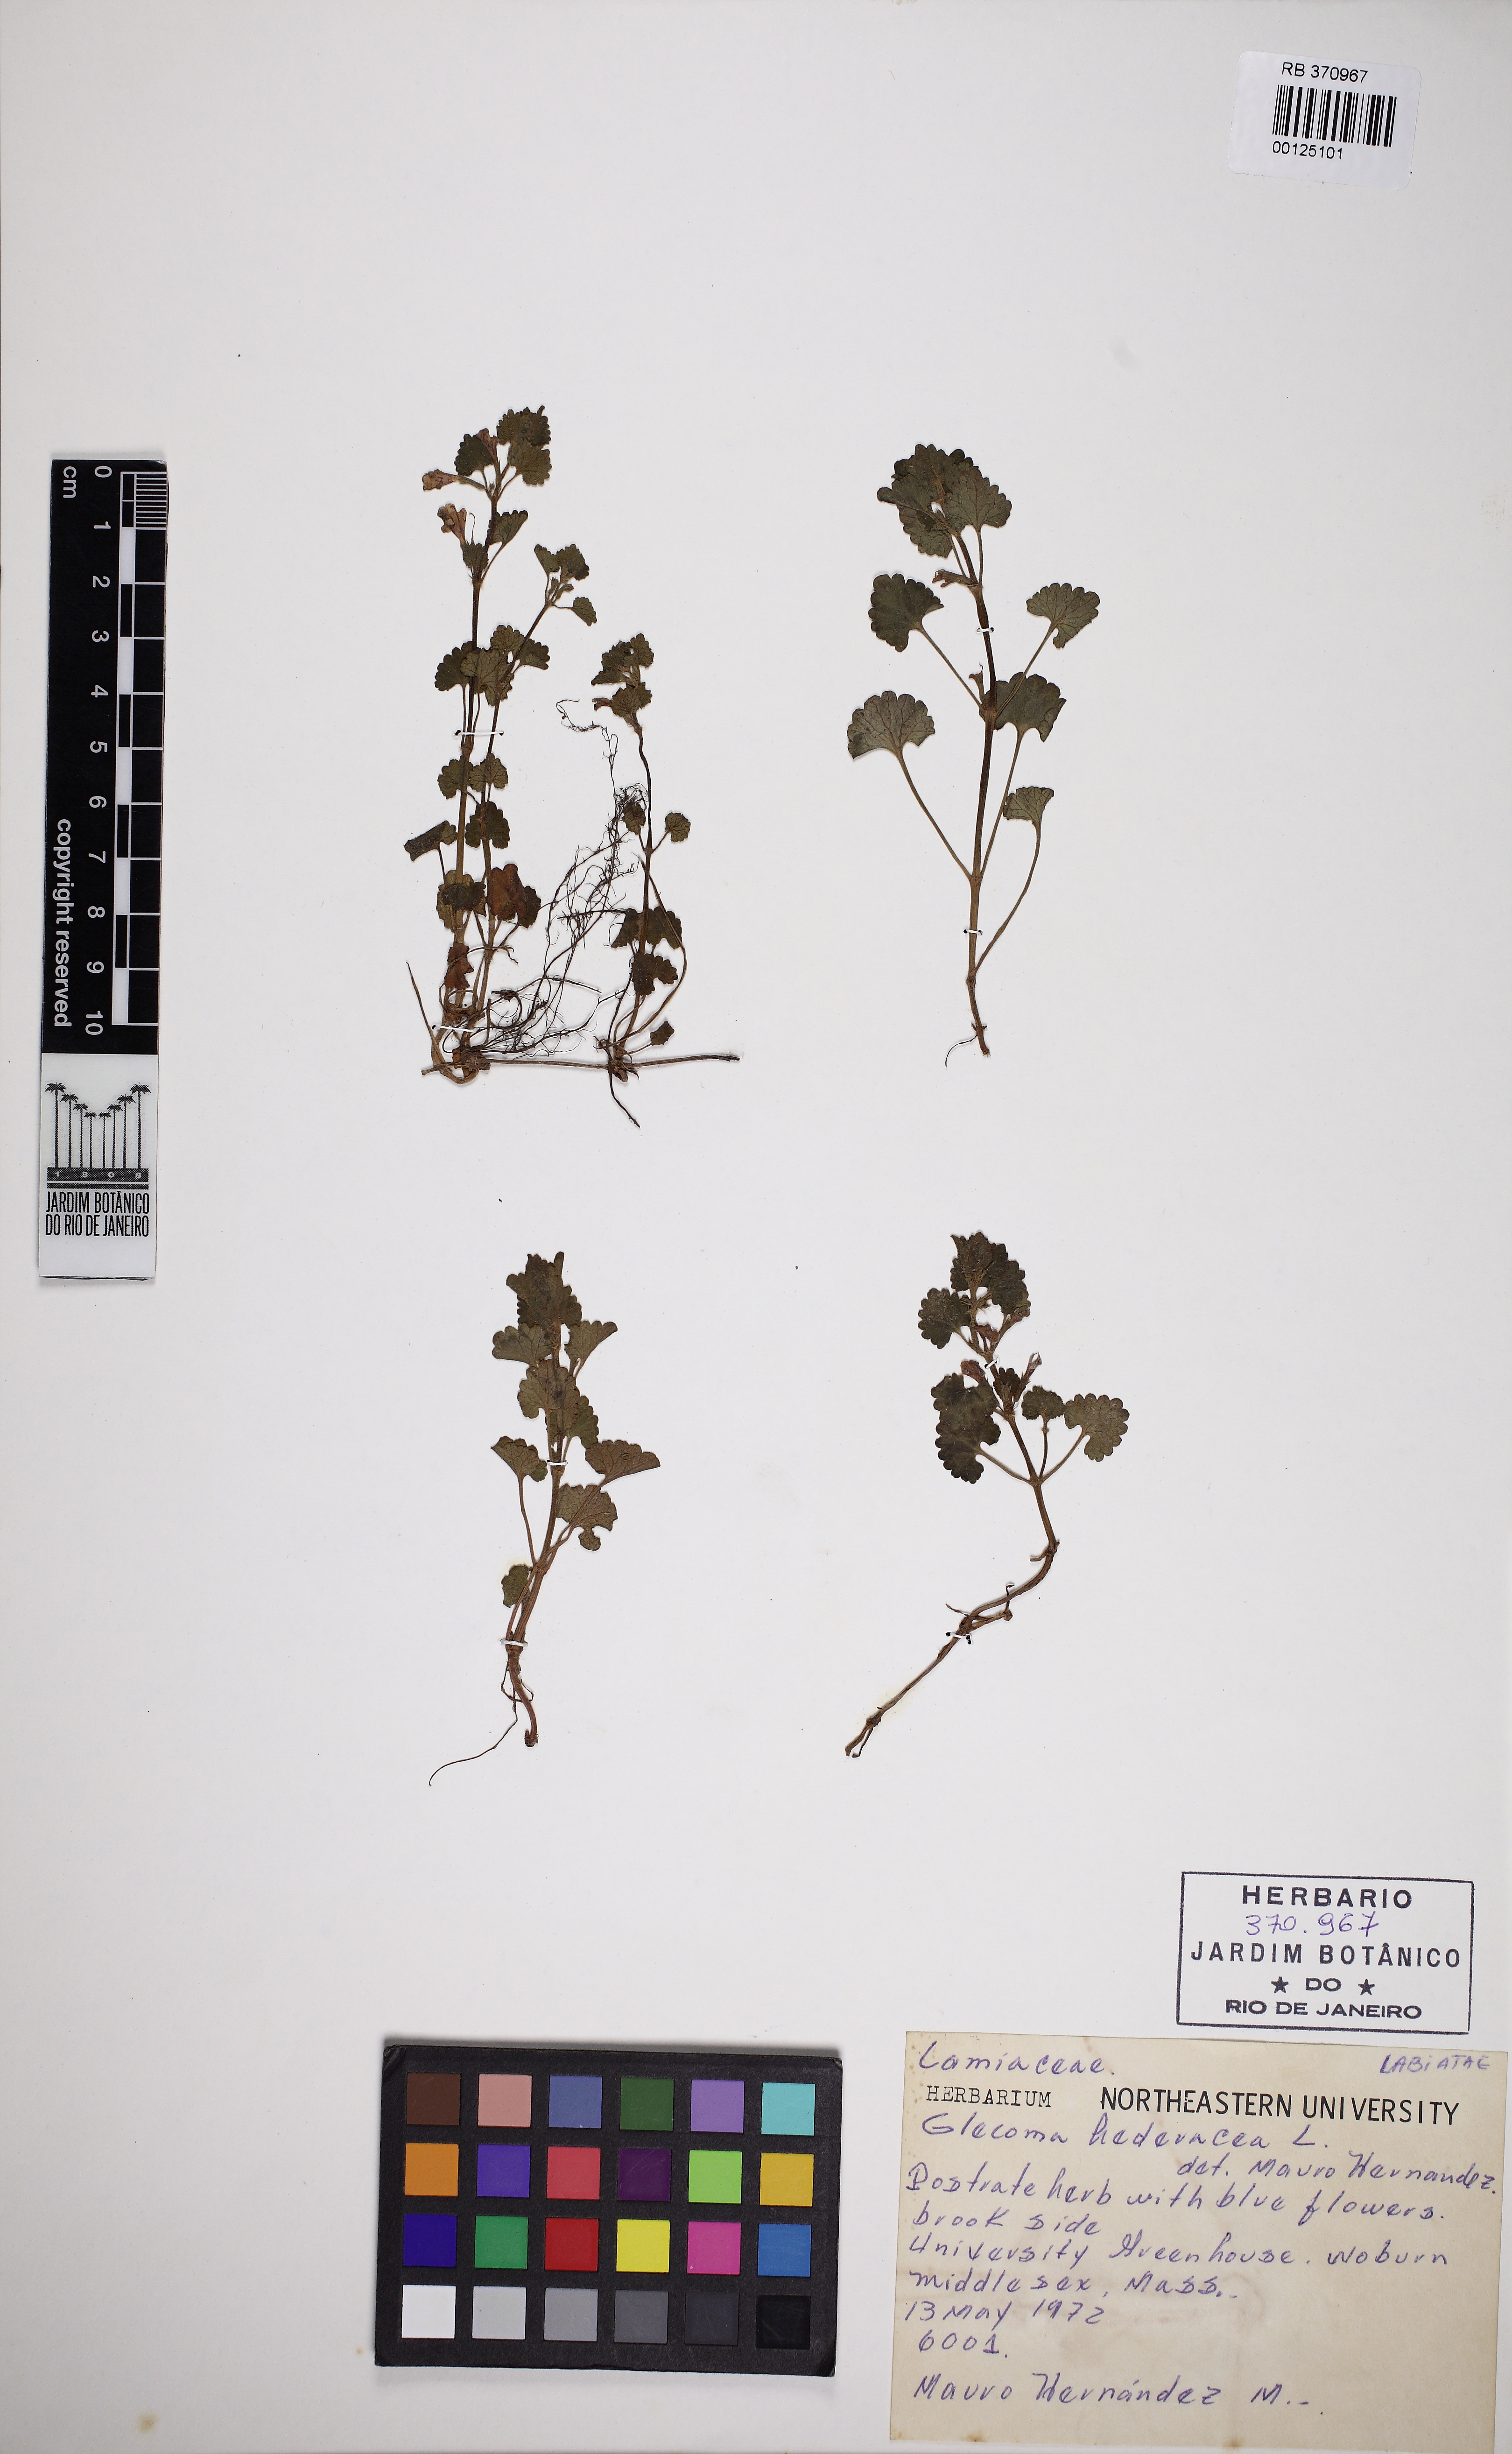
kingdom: Plantae
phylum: Tracheophyta
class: Magnoliopsida
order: Lamiales
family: Lamiaceae
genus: Glechoma
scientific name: Glechoma hederacea
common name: Ground ivy
